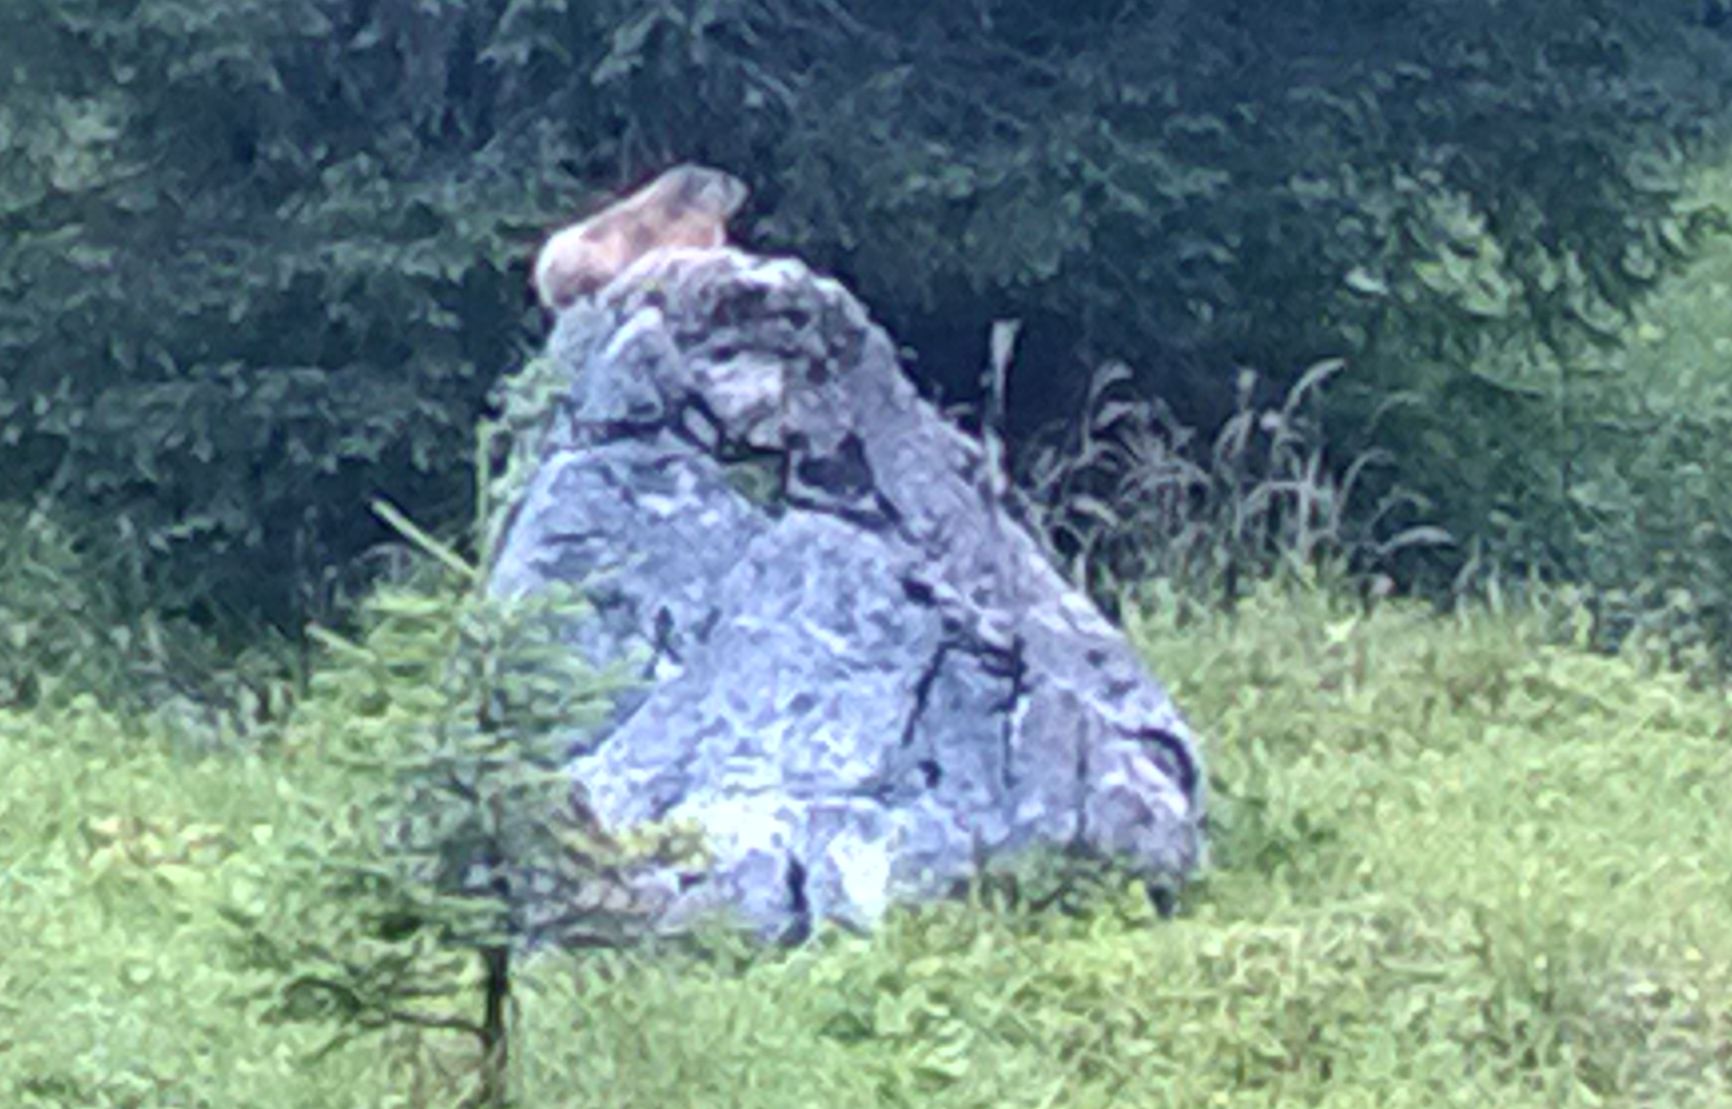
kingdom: Animalia
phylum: Chordata
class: Mammalia
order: Rodentia
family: Sciuridae
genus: Marmota
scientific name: Marmota marmota
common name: Alpine marmot
